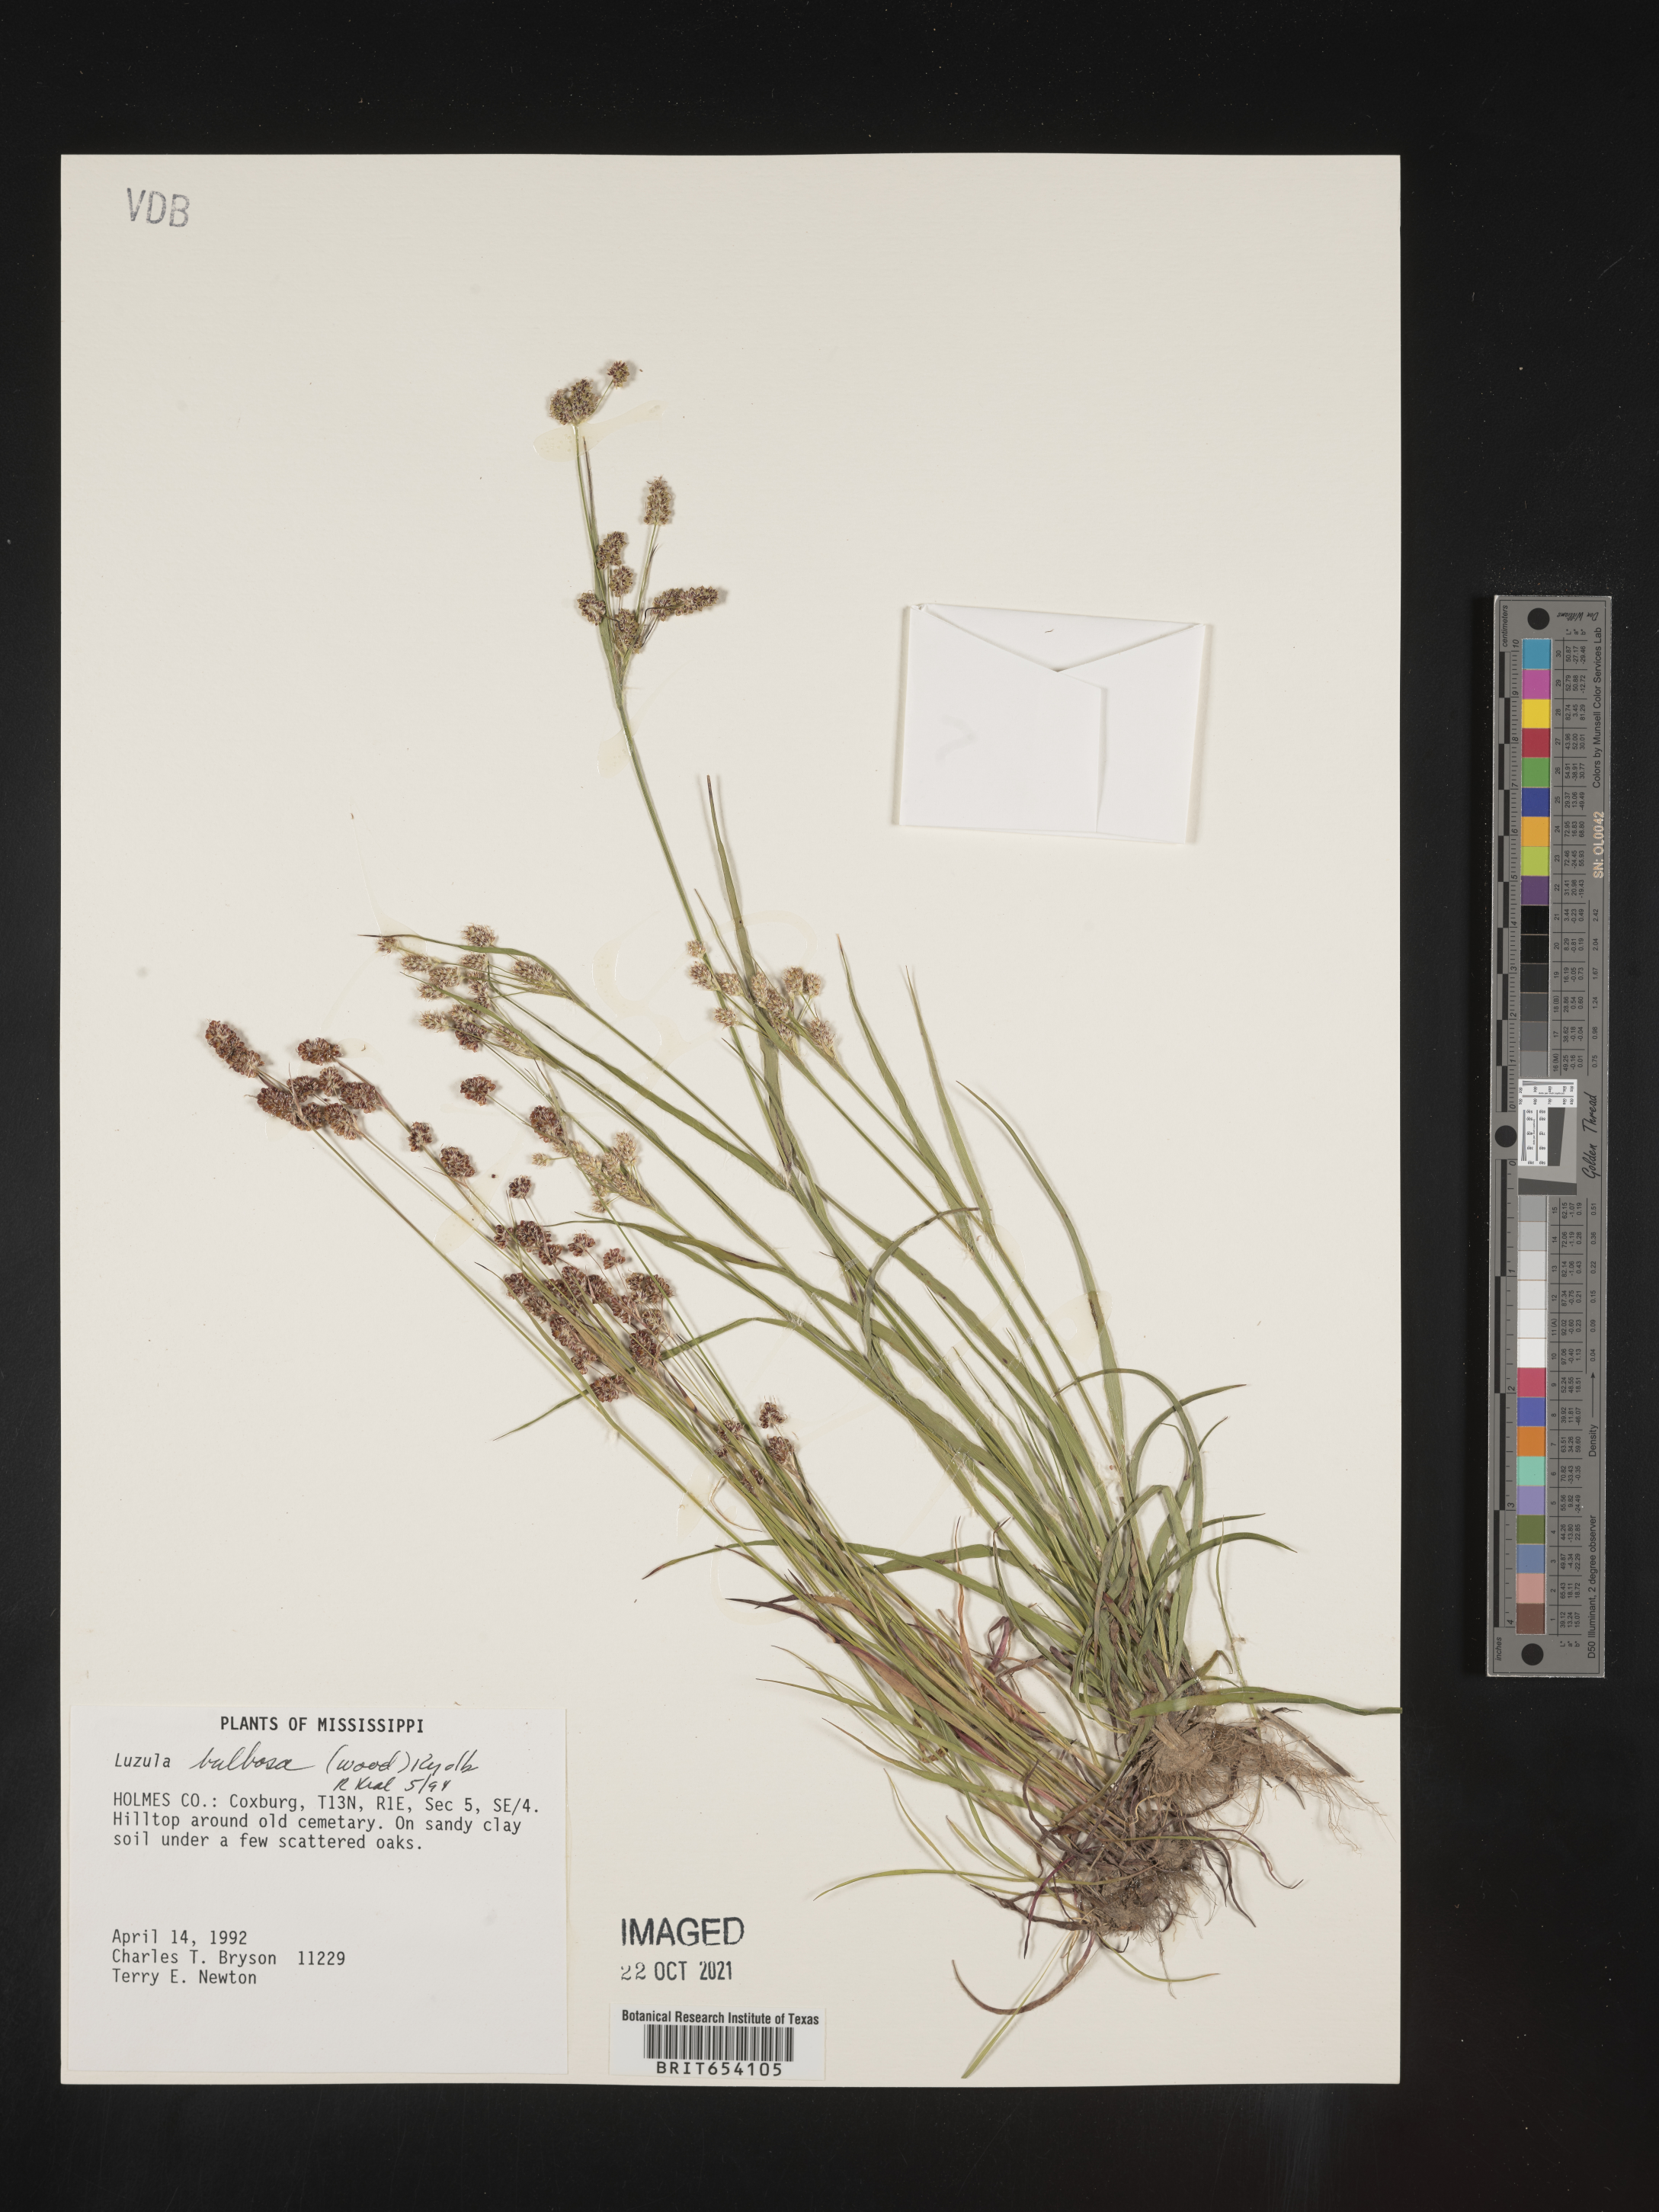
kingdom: Plantae
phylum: Tracheophyta
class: Liliopsida
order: Poales
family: Juncaceae
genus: Luzula
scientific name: Luzula bulbosa
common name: Bulbous woodrush
